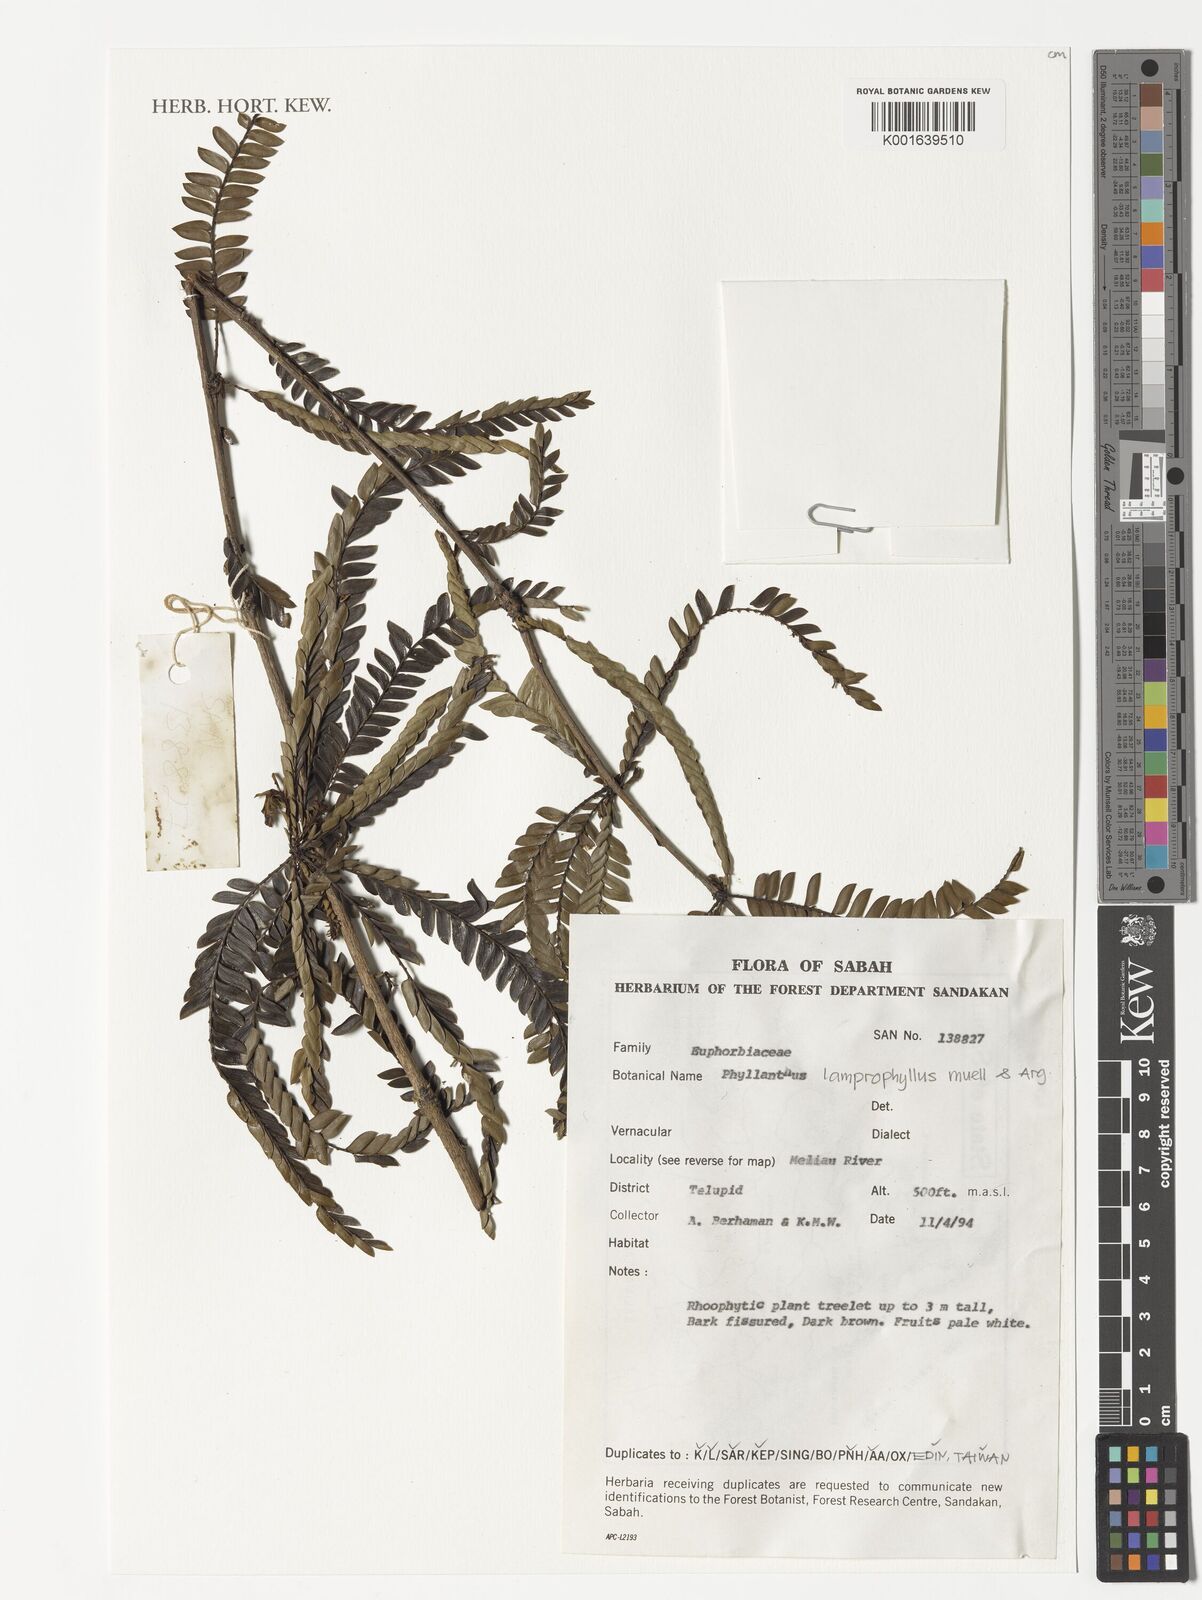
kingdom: Plantae
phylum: Tracheophyta
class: Magnoliopsida
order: Malpighiales
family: Phyllanthaceae
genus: Glochidion
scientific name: Glochidion lamprophyllum
